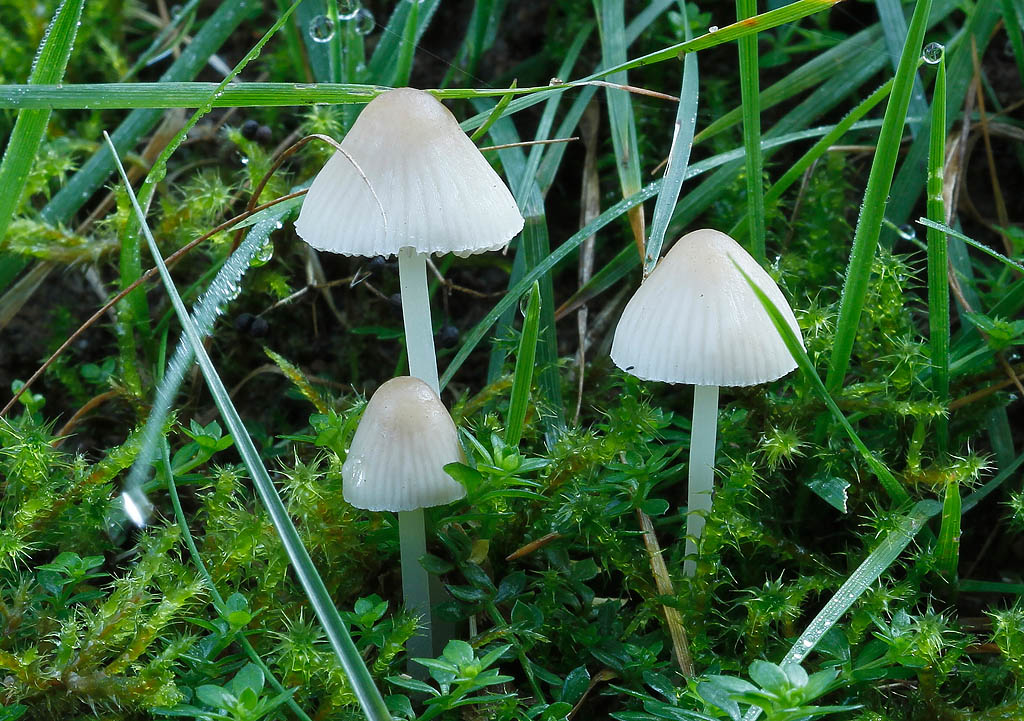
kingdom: Fungi
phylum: Basidiomycota
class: Agaricomycetes
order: Agaricales
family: Mycenaceae
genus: Atheniella
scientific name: Atheniella flavoalba
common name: gulhvid huesvamp
